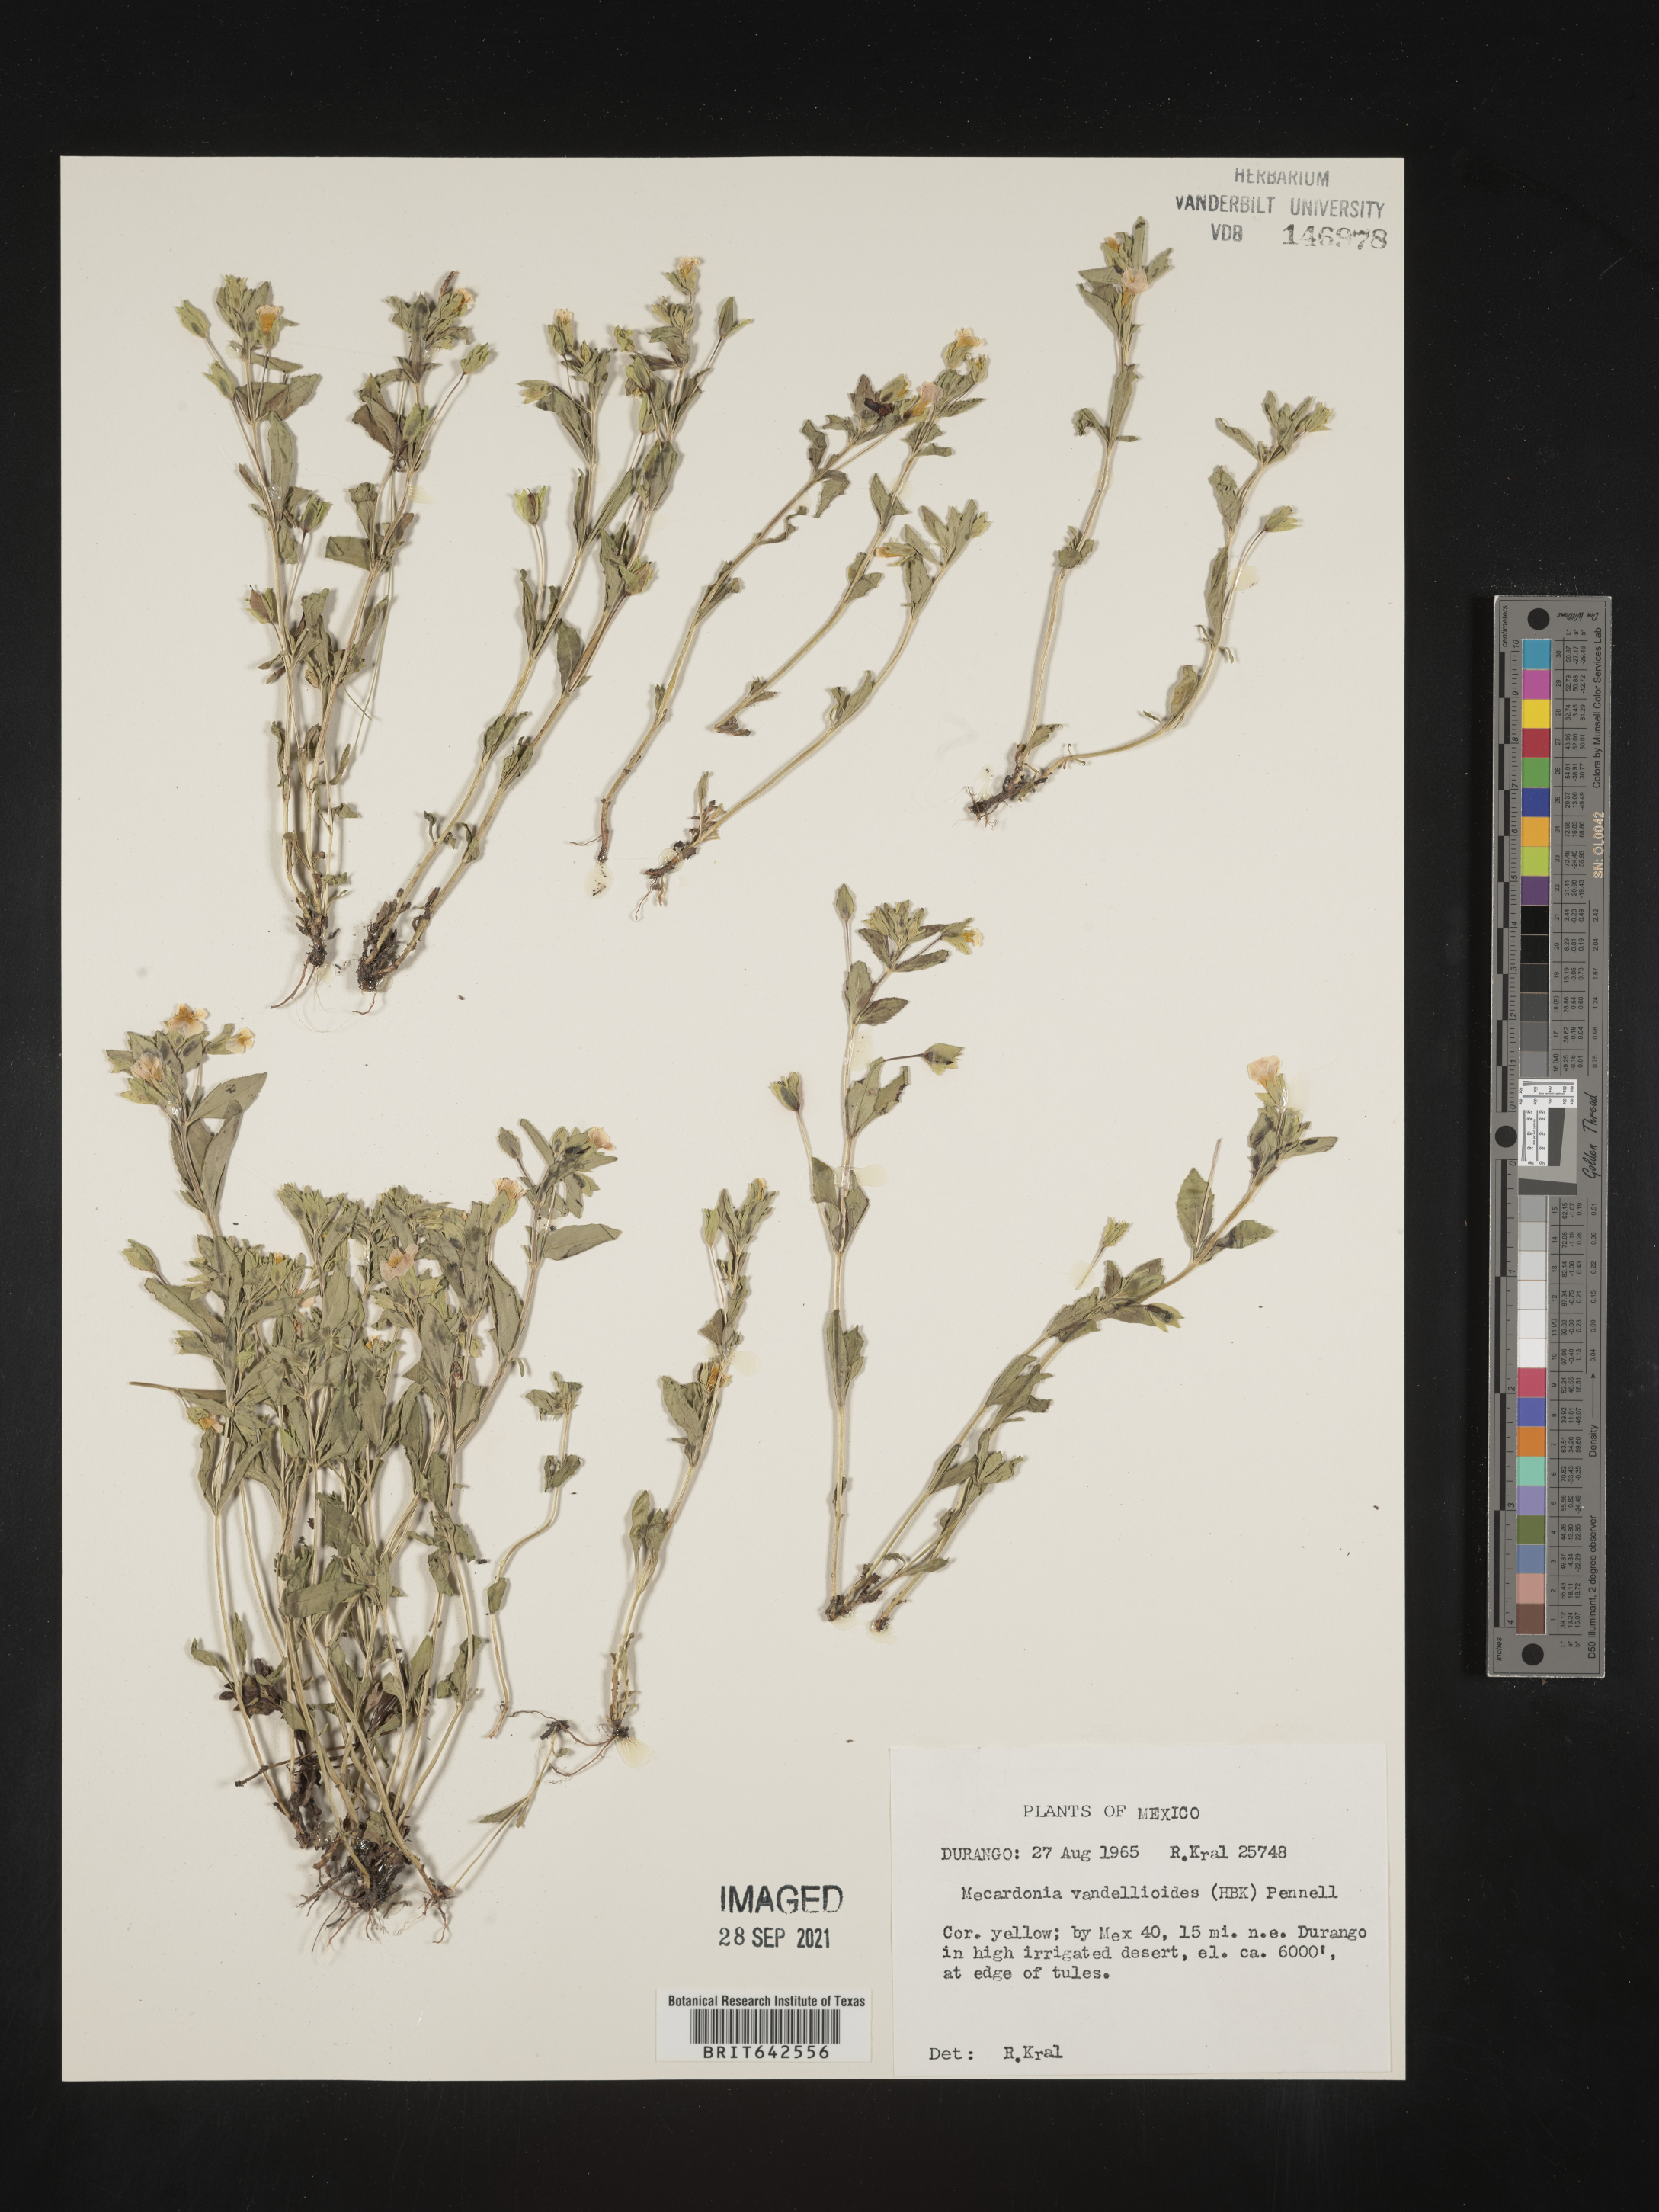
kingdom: Plantae
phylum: Tracheophyta
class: Magnoliopsida
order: Lamiales
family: Plantaginaceae
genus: Mecardonia
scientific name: Mecardonia
